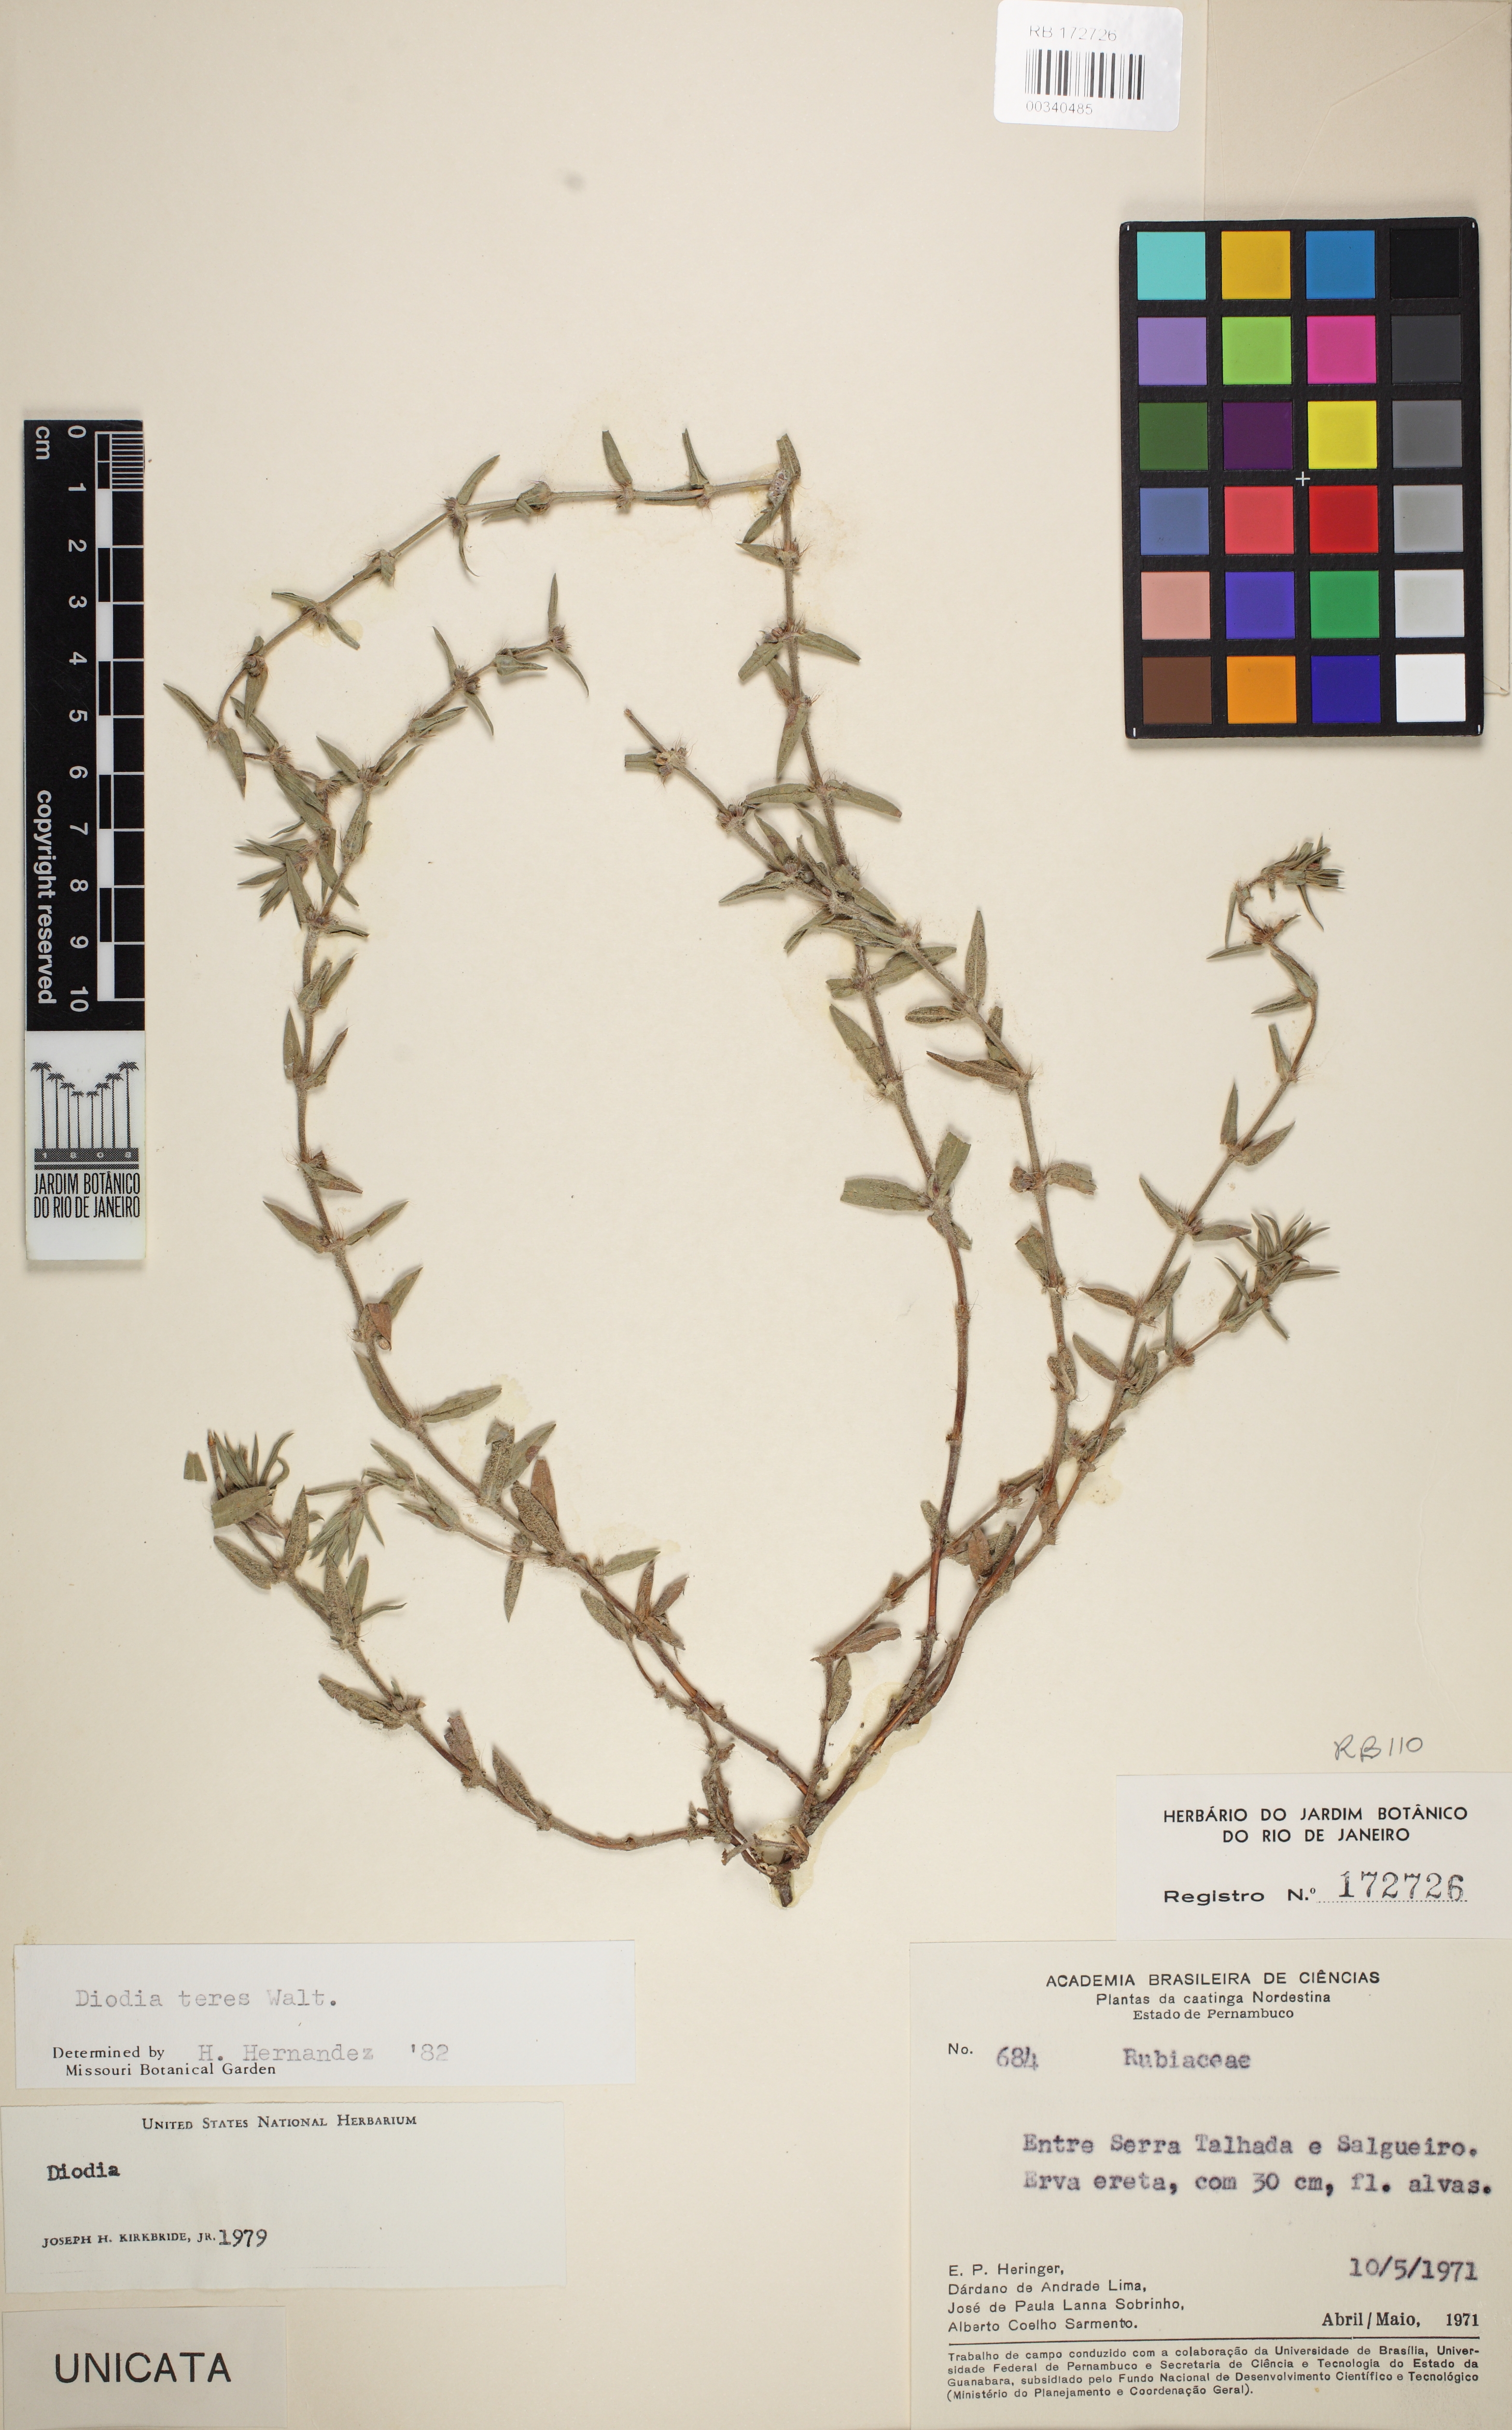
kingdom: Plantae
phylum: Tracheophyta
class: Magnoliopsida
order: Gentianales
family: Rubiaceae
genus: Hexasepalum
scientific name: Hexasepalum teres
